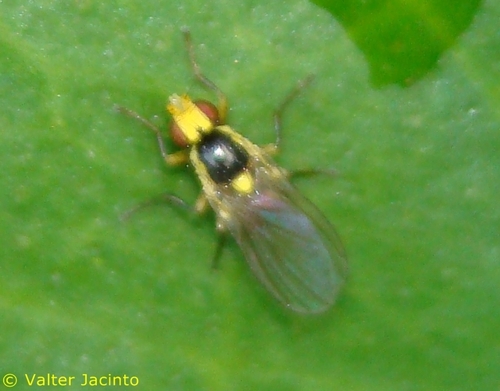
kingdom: Animalia
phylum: Arthropoda
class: Insecta
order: Diptera
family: Agromyzidae
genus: Liriomyza
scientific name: Liriomyza
